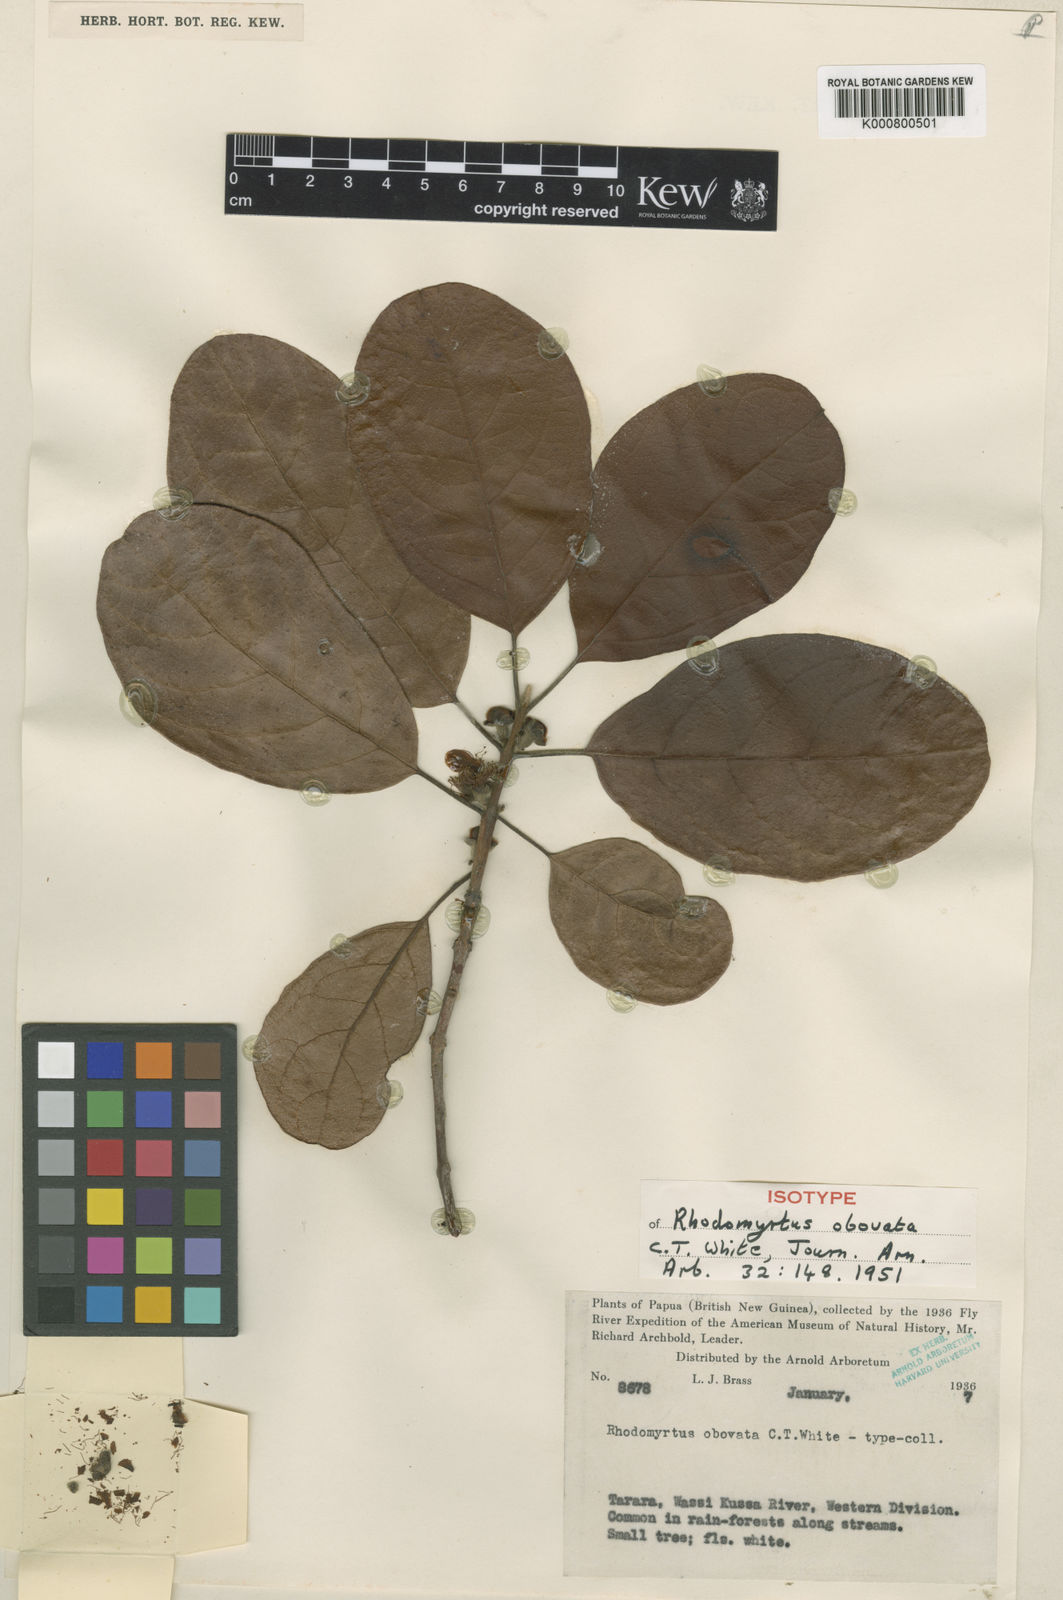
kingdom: Plantae
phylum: Tracheophyta
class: Magnoliopsida
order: Myrtales
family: Myrtaceae
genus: Rhodomyrtus
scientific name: Rhodomyrtus obovata
